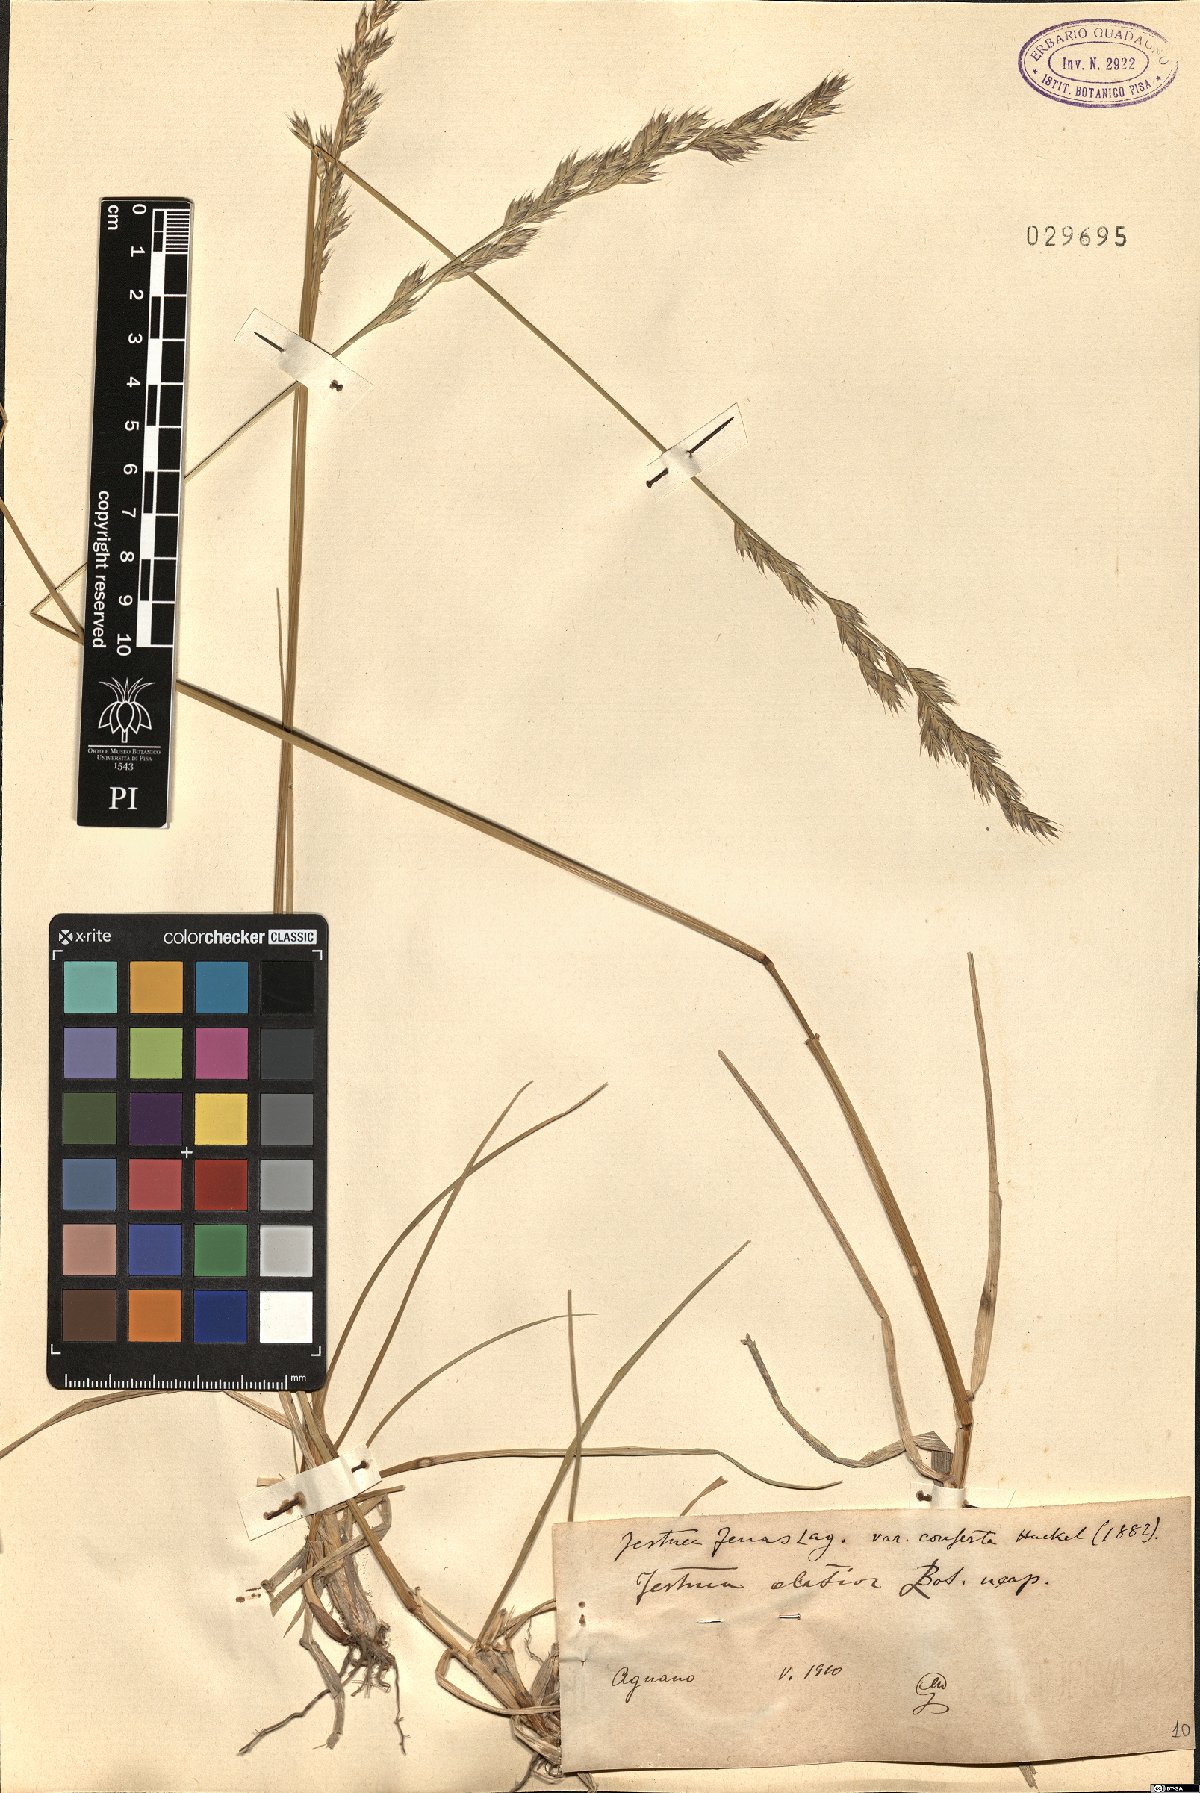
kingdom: Plantae
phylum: Tracheophyta
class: Liliopsida
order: Poales
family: Poaceae
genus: Lolium
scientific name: Lolium arundinaceum
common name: Reed fescue
